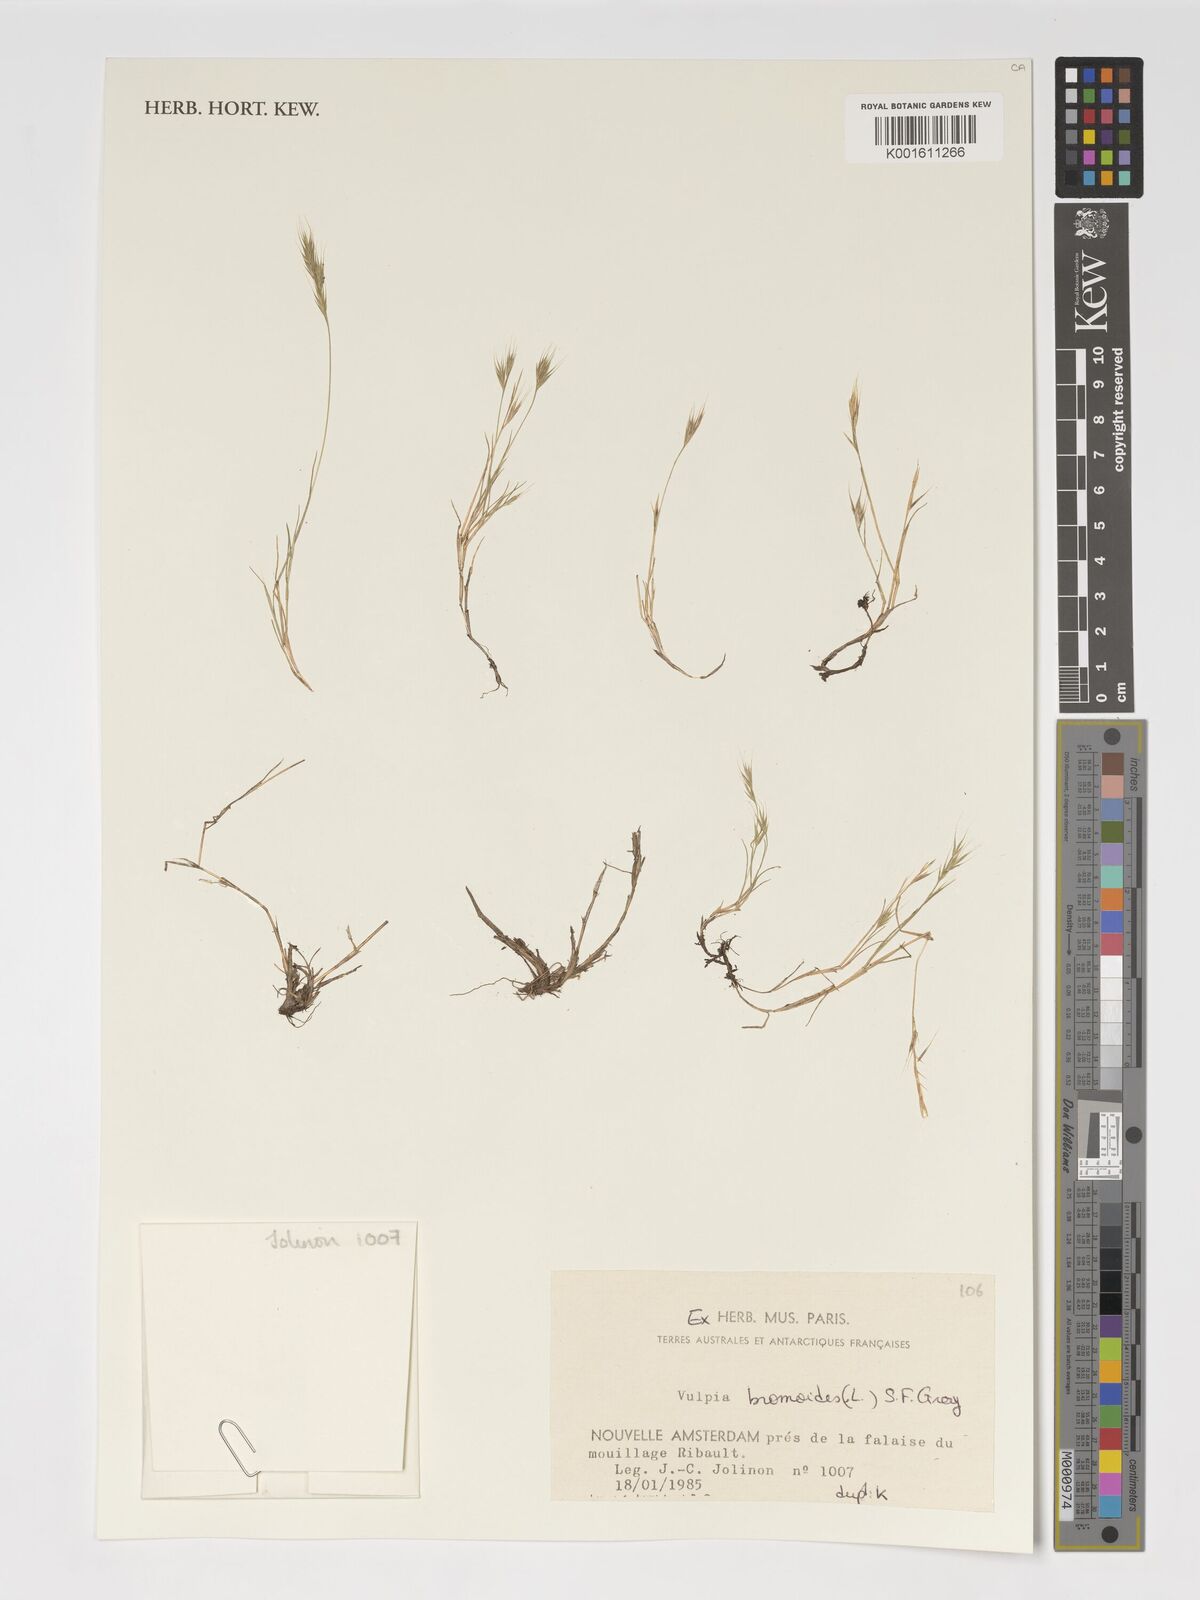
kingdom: Plantae
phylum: Tracheophyta
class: Liliopsida
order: Poales
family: Poaceae
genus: Festuca
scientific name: Festuca bromoides
